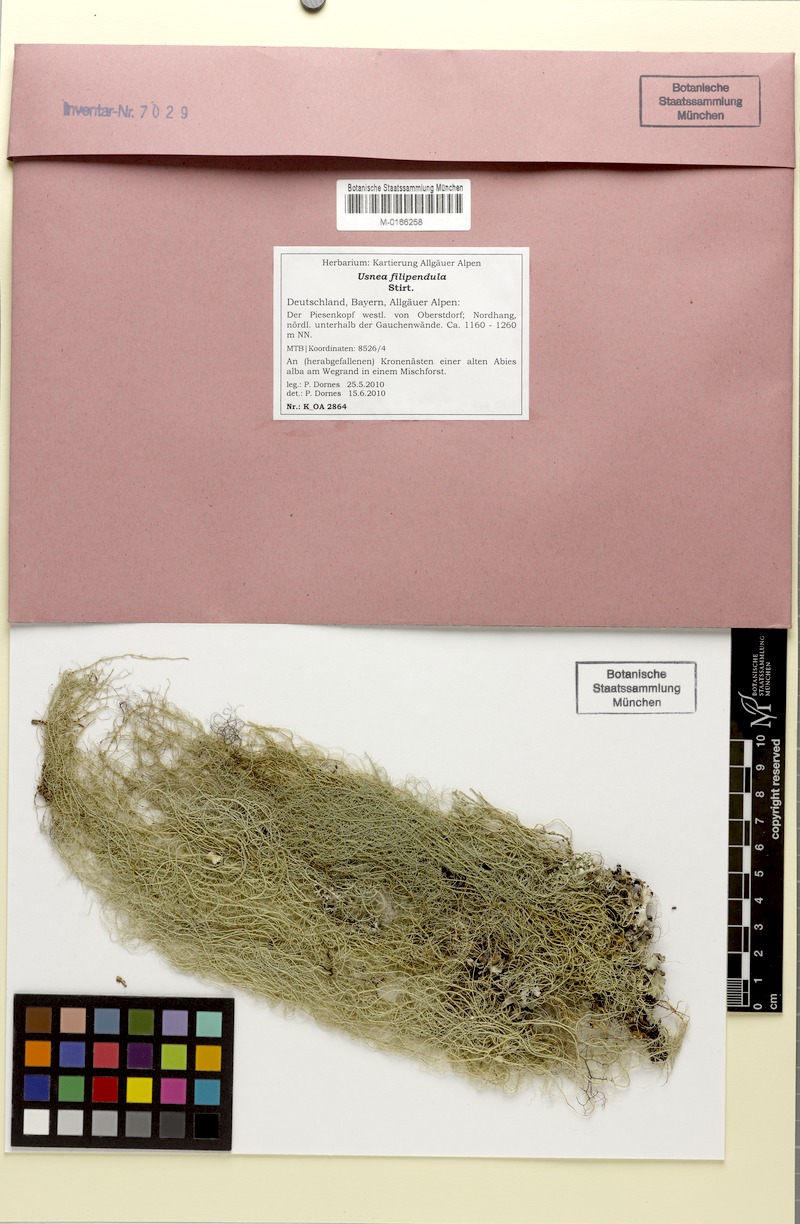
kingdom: Fungi
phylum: Ascomycota
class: Lecanoromycetes
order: Lecanorales
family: Parmeliaceae
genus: Usnea
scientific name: Usnea filipendula
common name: Fishbone beard lichen
